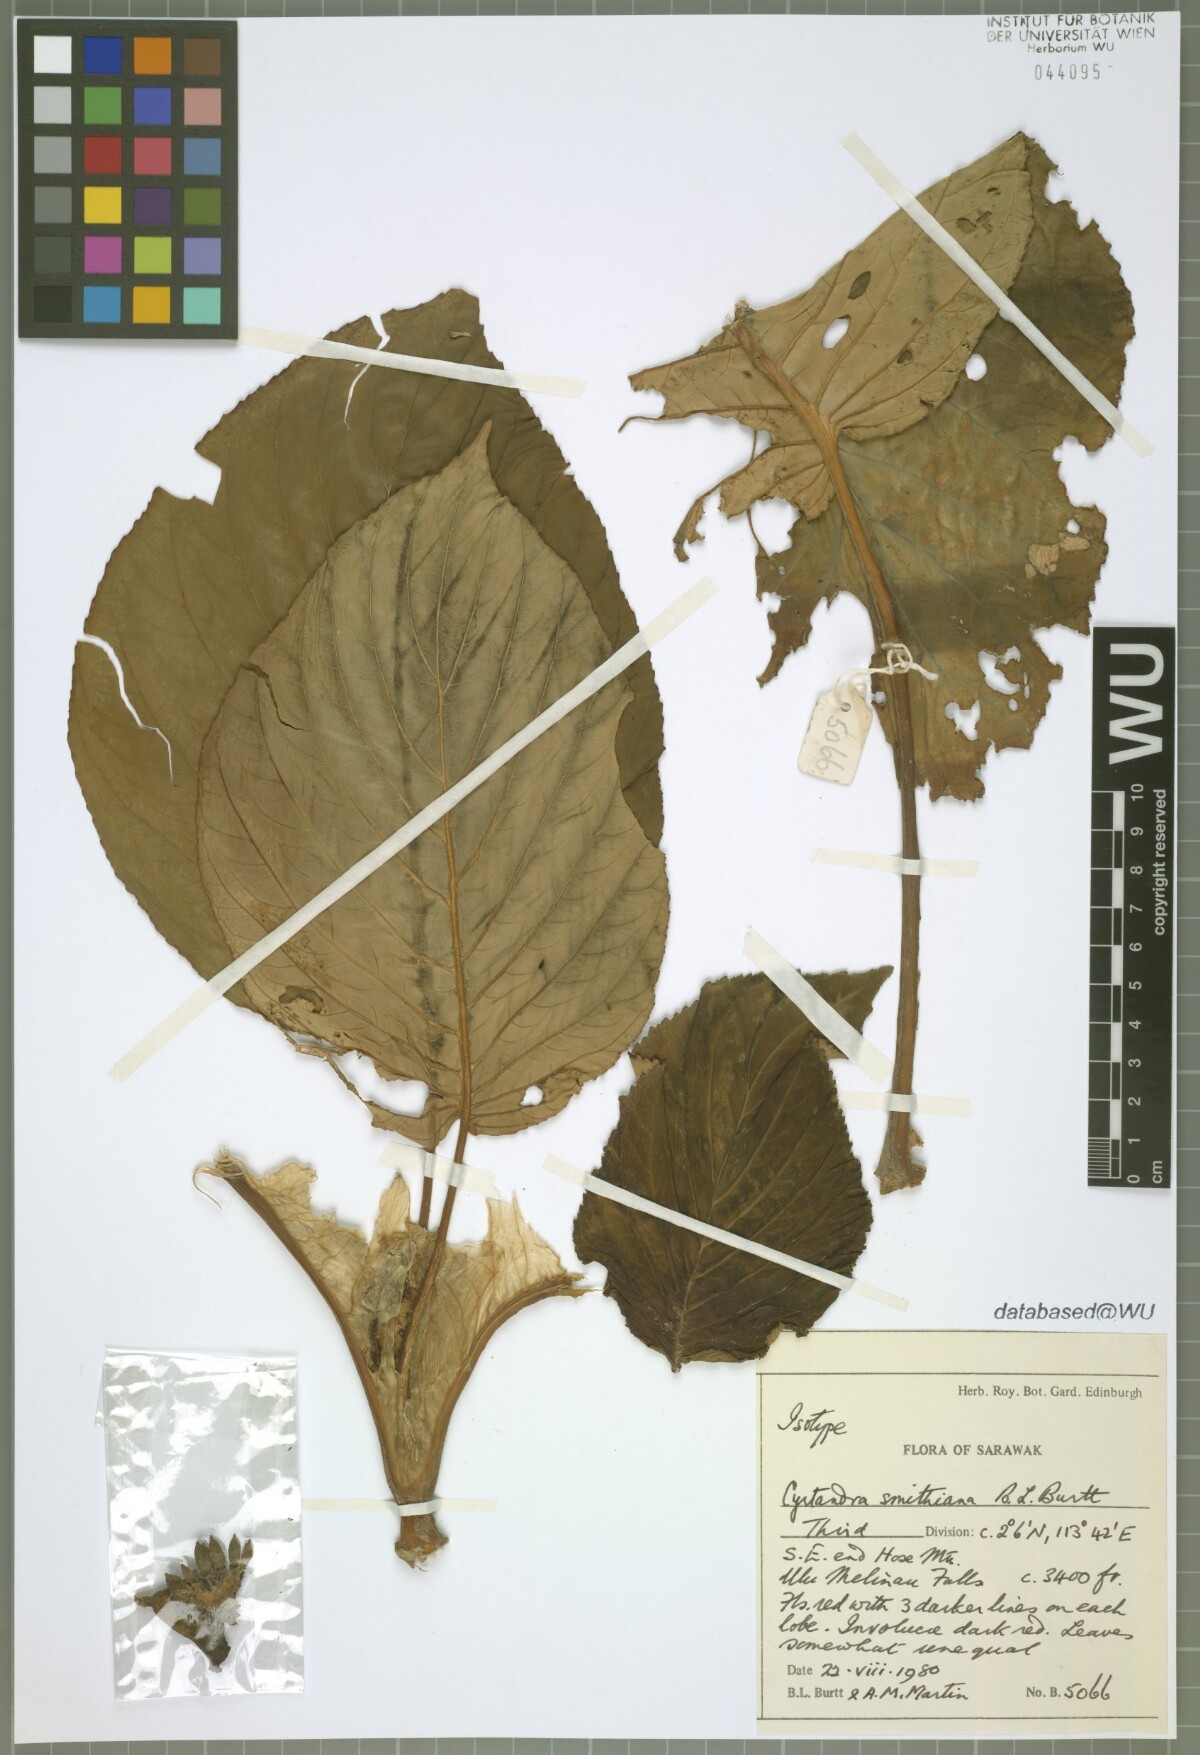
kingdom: Plantae
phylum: Tracheophyta
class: Magnoliopsida
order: Lamiales
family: Gesneriaceae
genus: Cyrtandra
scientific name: Cyrtandra smithiana
